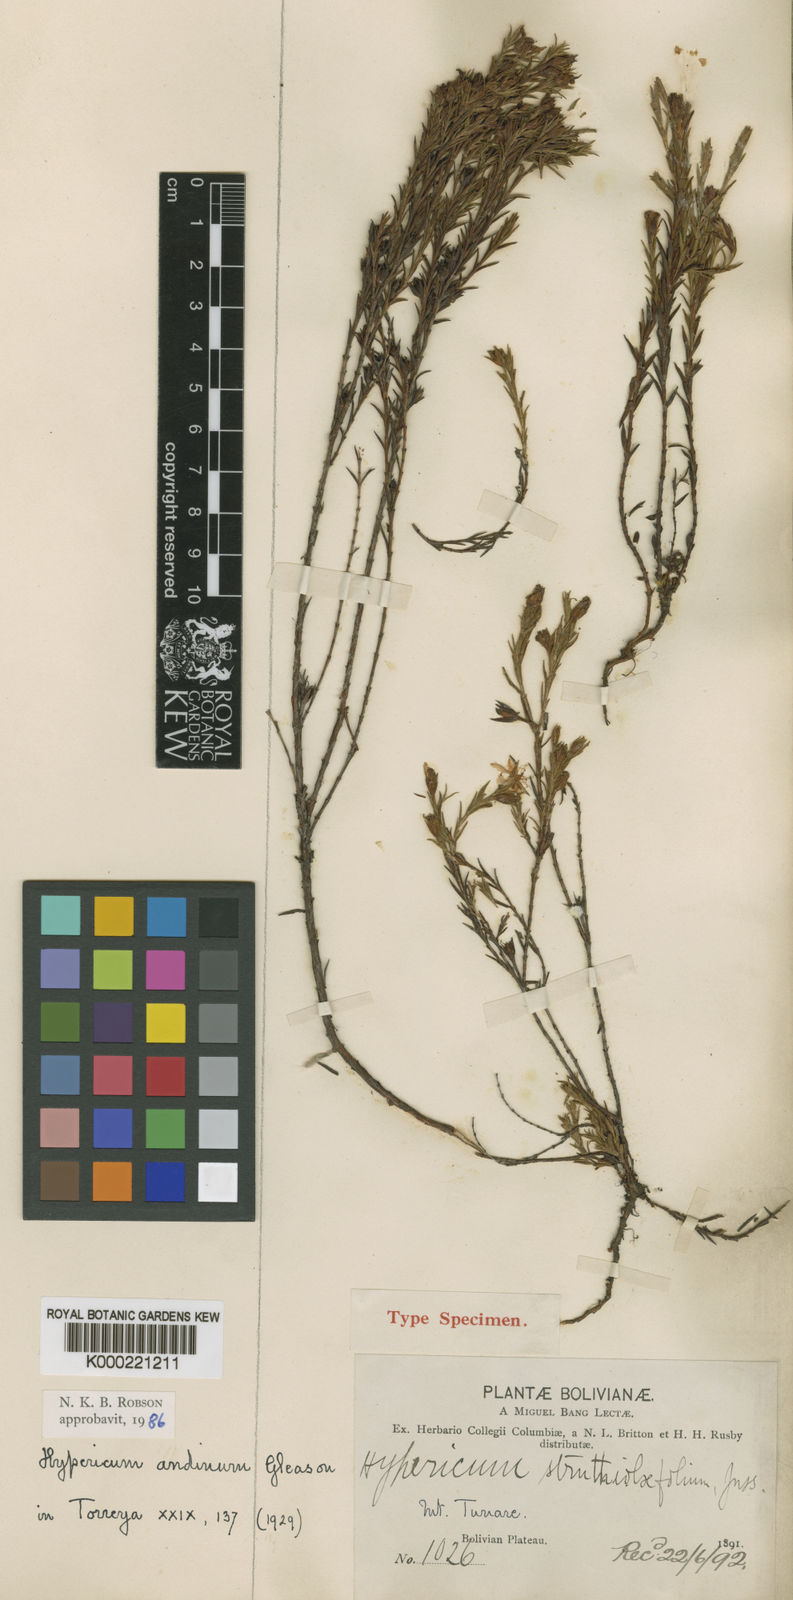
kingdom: Plantae
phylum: Tracheophyta
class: Magnoliopsida
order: Malpighiales
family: Hypericaceae
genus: Hypericum
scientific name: Hypericum andinum
